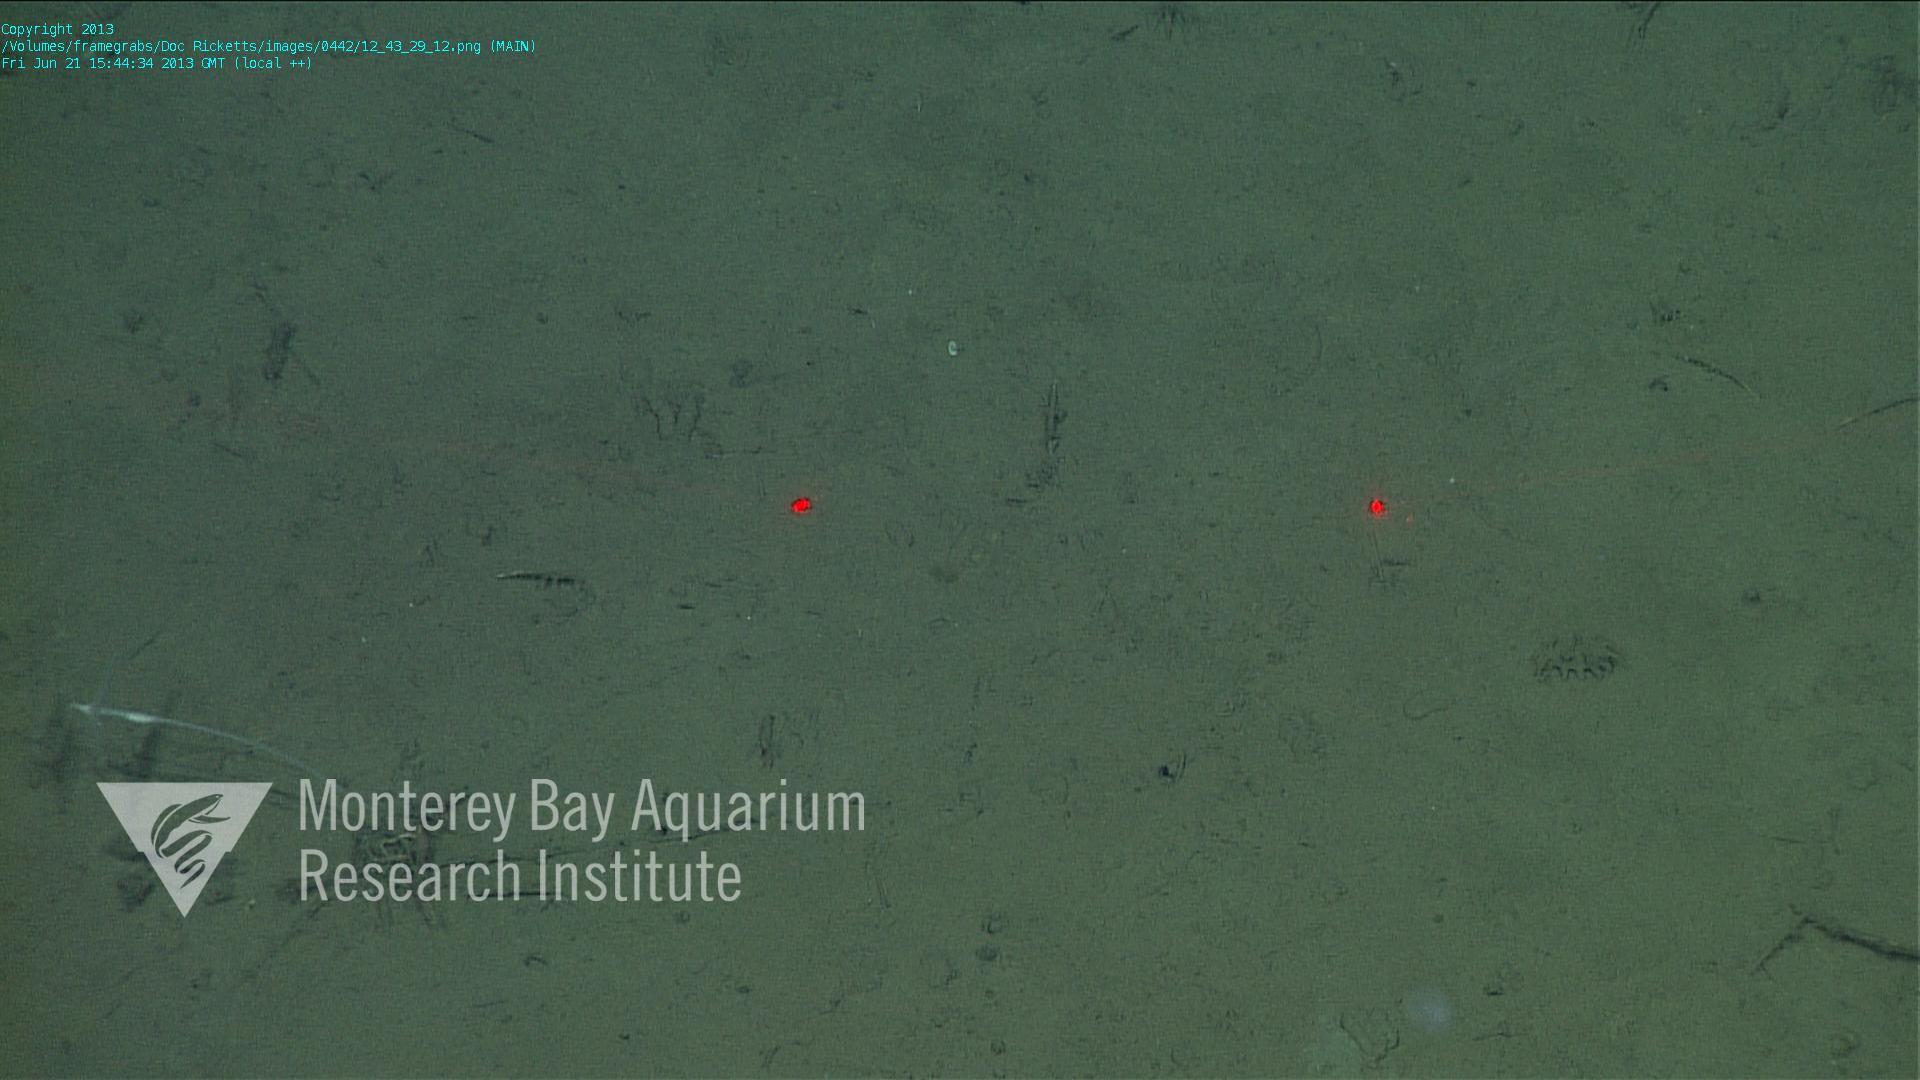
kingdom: Animalia
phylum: Porifera
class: Demospongiae
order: Poecilosclerida
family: Cladorhizidae
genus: Cladorhiza
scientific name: Cladorhiza
